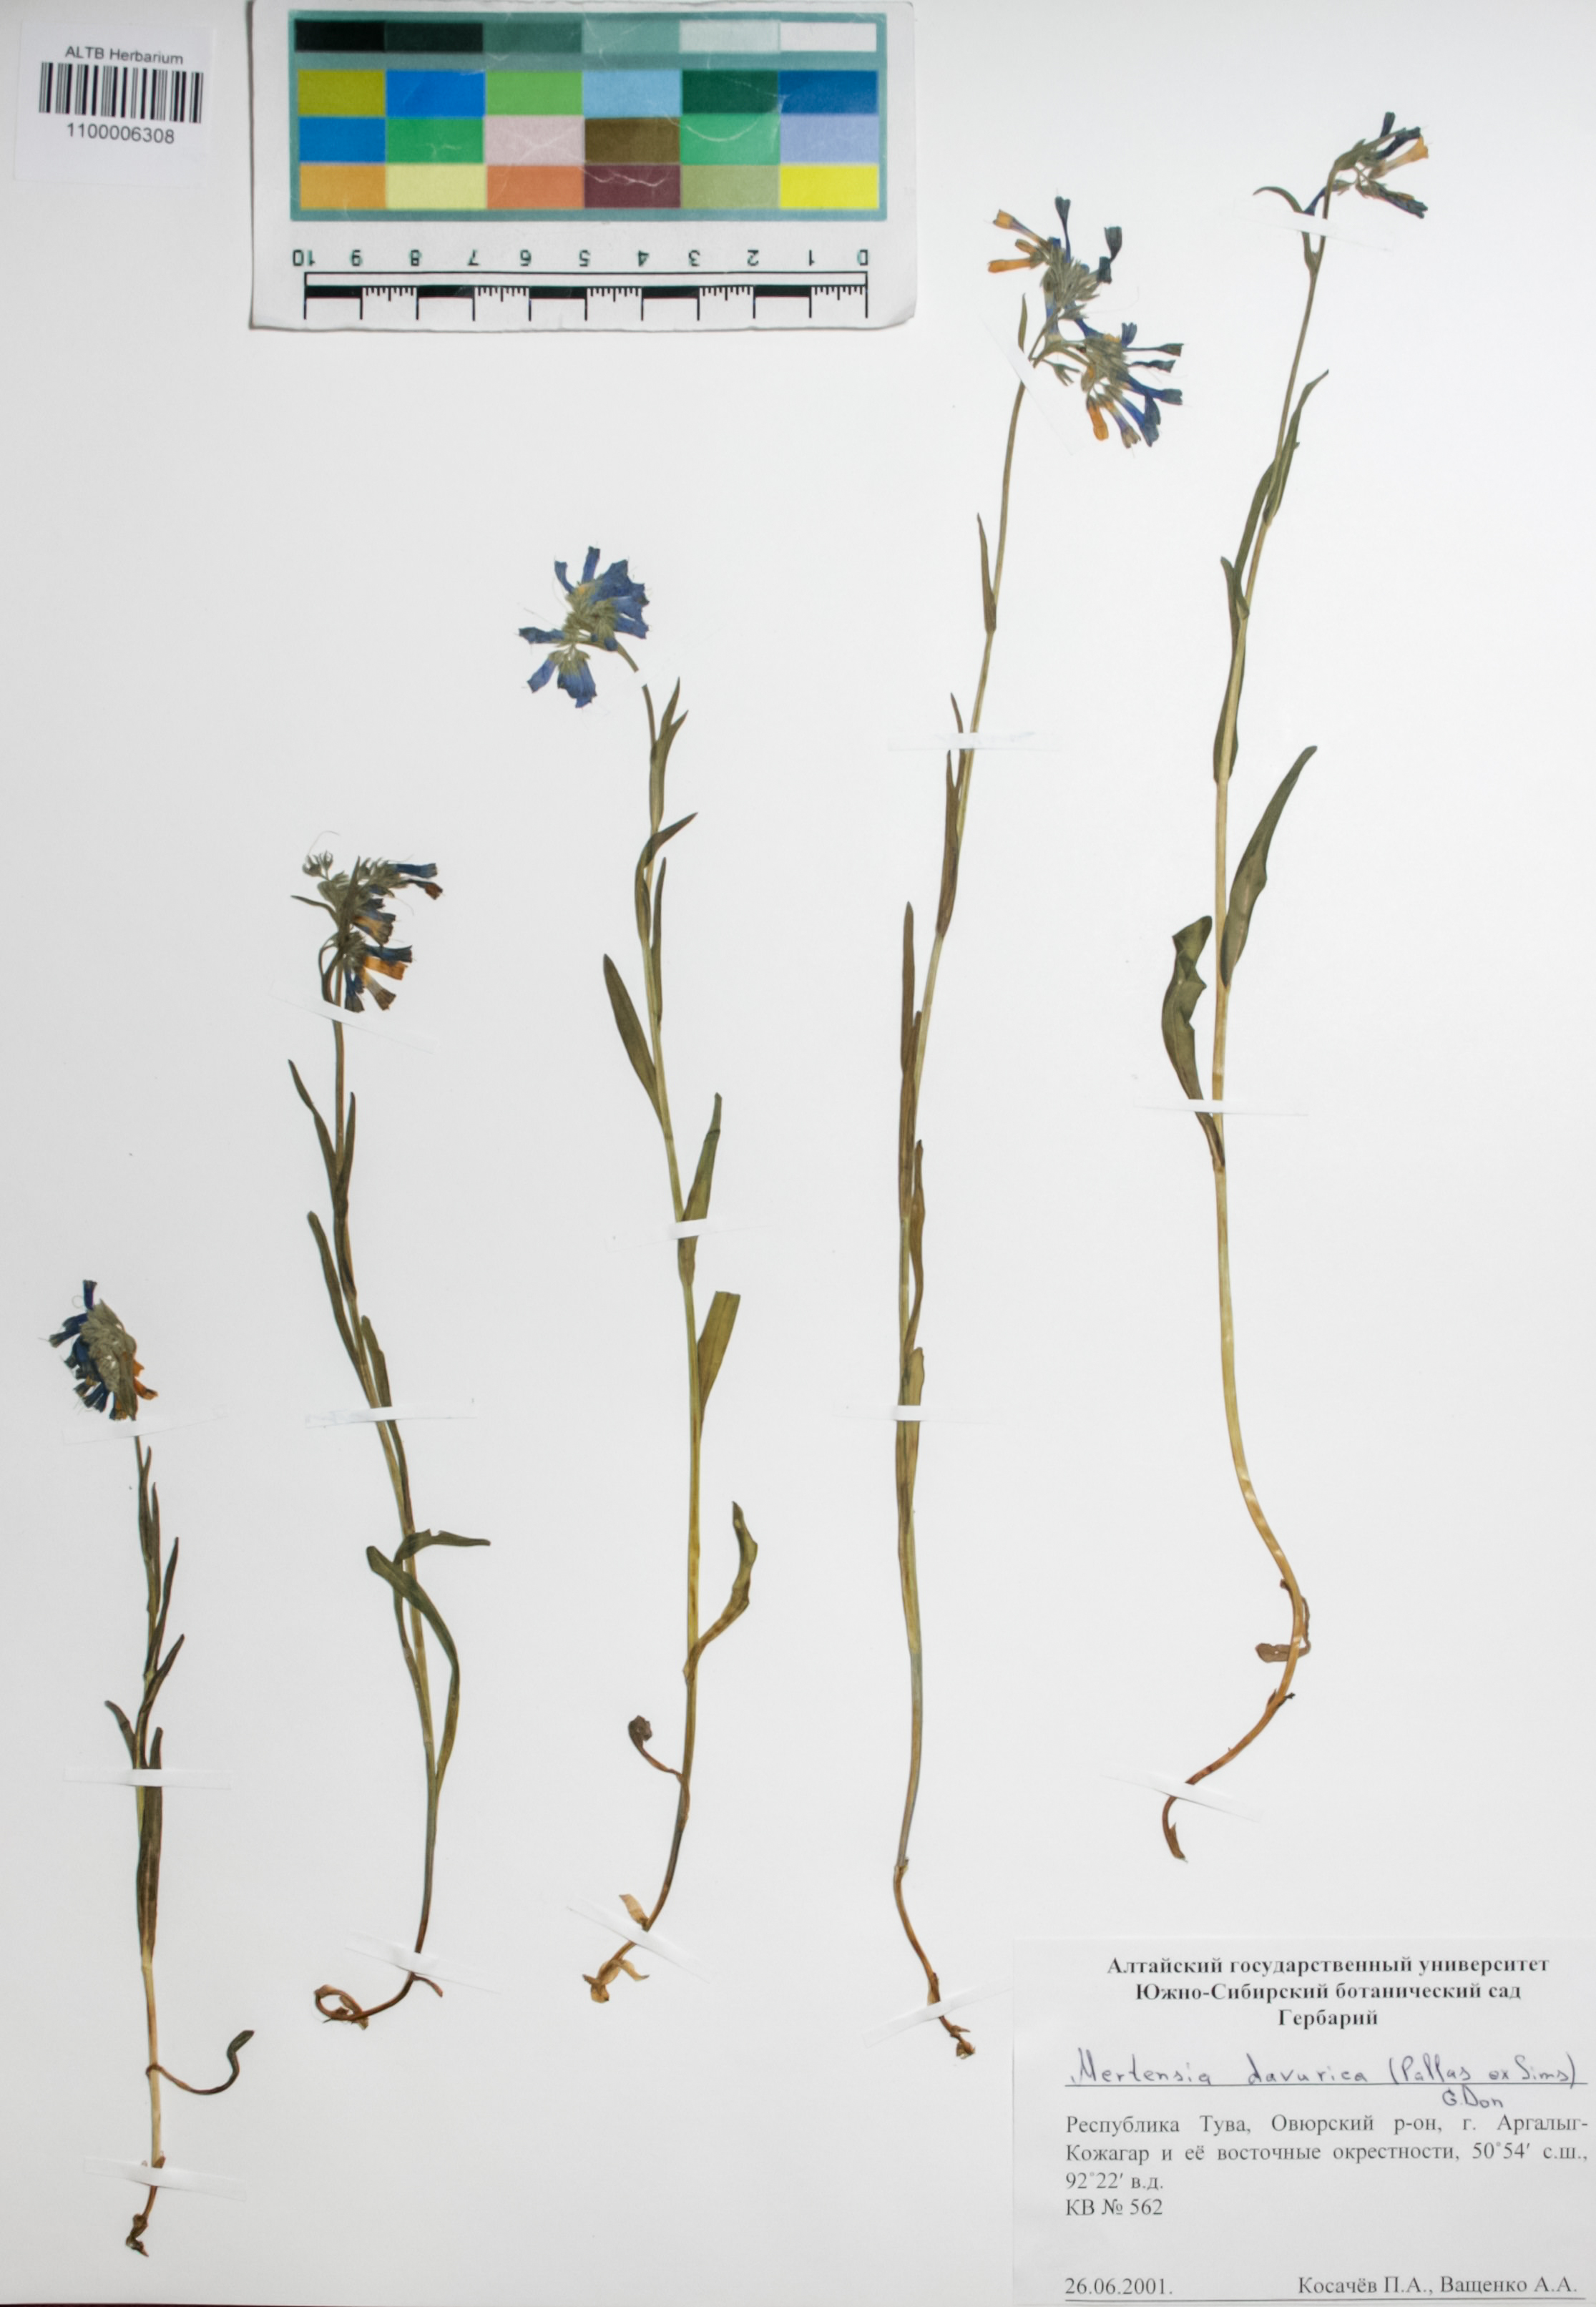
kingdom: Plantae
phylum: Tracheophyta
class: Magnoliopsida
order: Boraginales
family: Boraginaceae
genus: Mertensia
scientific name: Mertensia davurica
